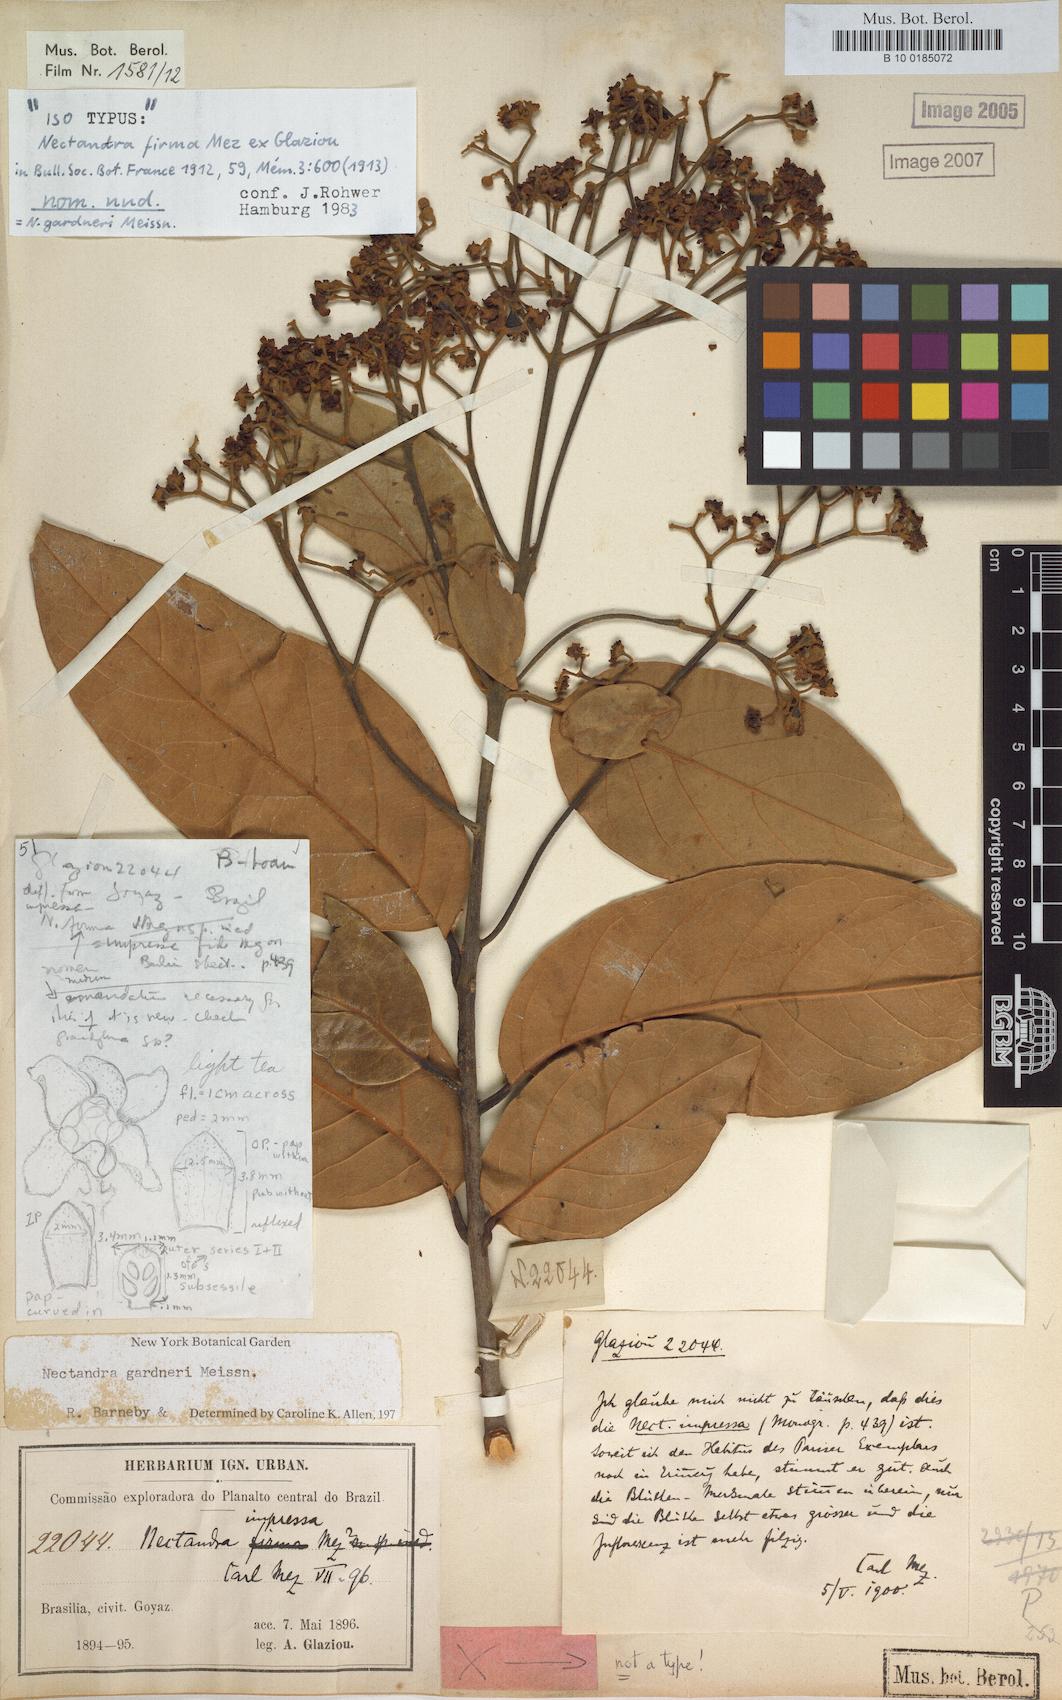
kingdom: Plantae
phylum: Tracheophyta
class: Magnoliopsida
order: Laurales
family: Lauraceae
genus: Nectandra
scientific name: Nectandra gardneri
